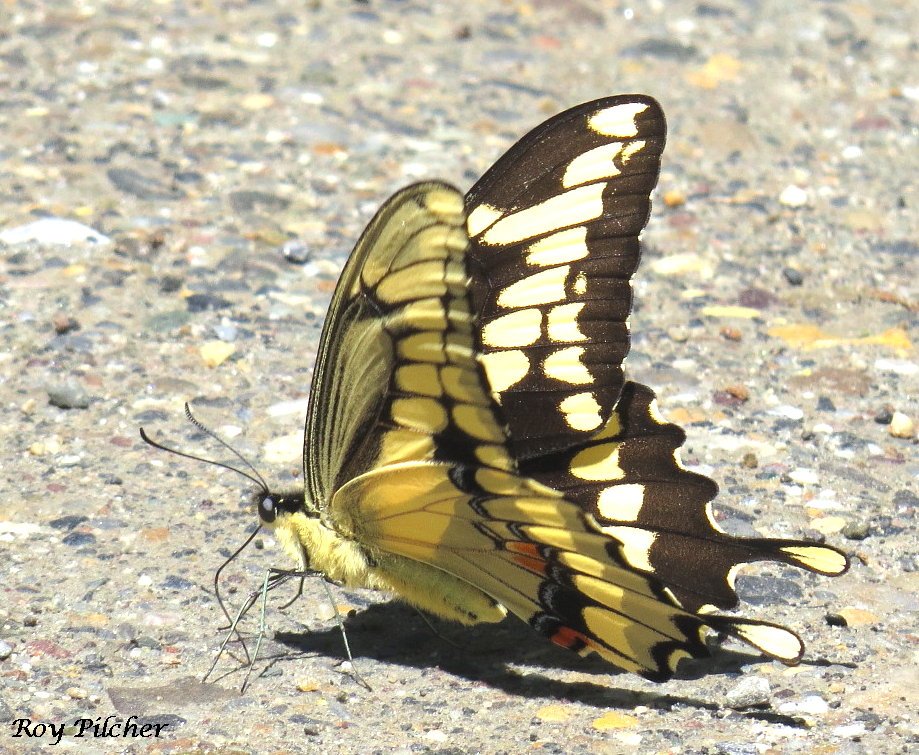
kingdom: Animalia
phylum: Arthropoda
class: Insecta
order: Lepidoptera
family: Papilionidae
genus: Papilio
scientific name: Papilio cresphontes
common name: Eastern Giant Swallowtail
